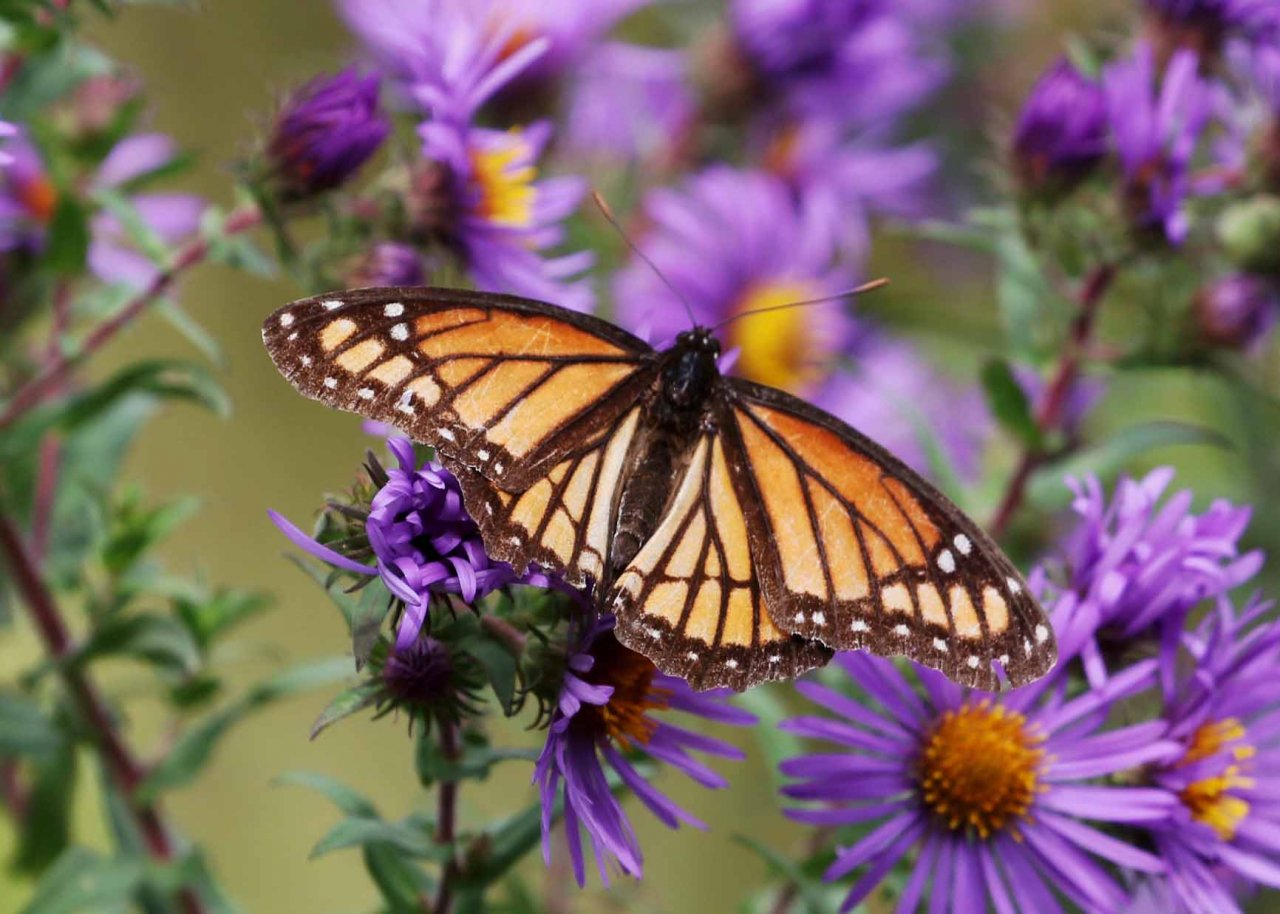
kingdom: Animalia
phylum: Arthropoda
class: Insecta
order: Lepidoptera
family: Nymphalidae
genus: Limenitis
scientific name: Limenitis archippus
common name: Viceroy
